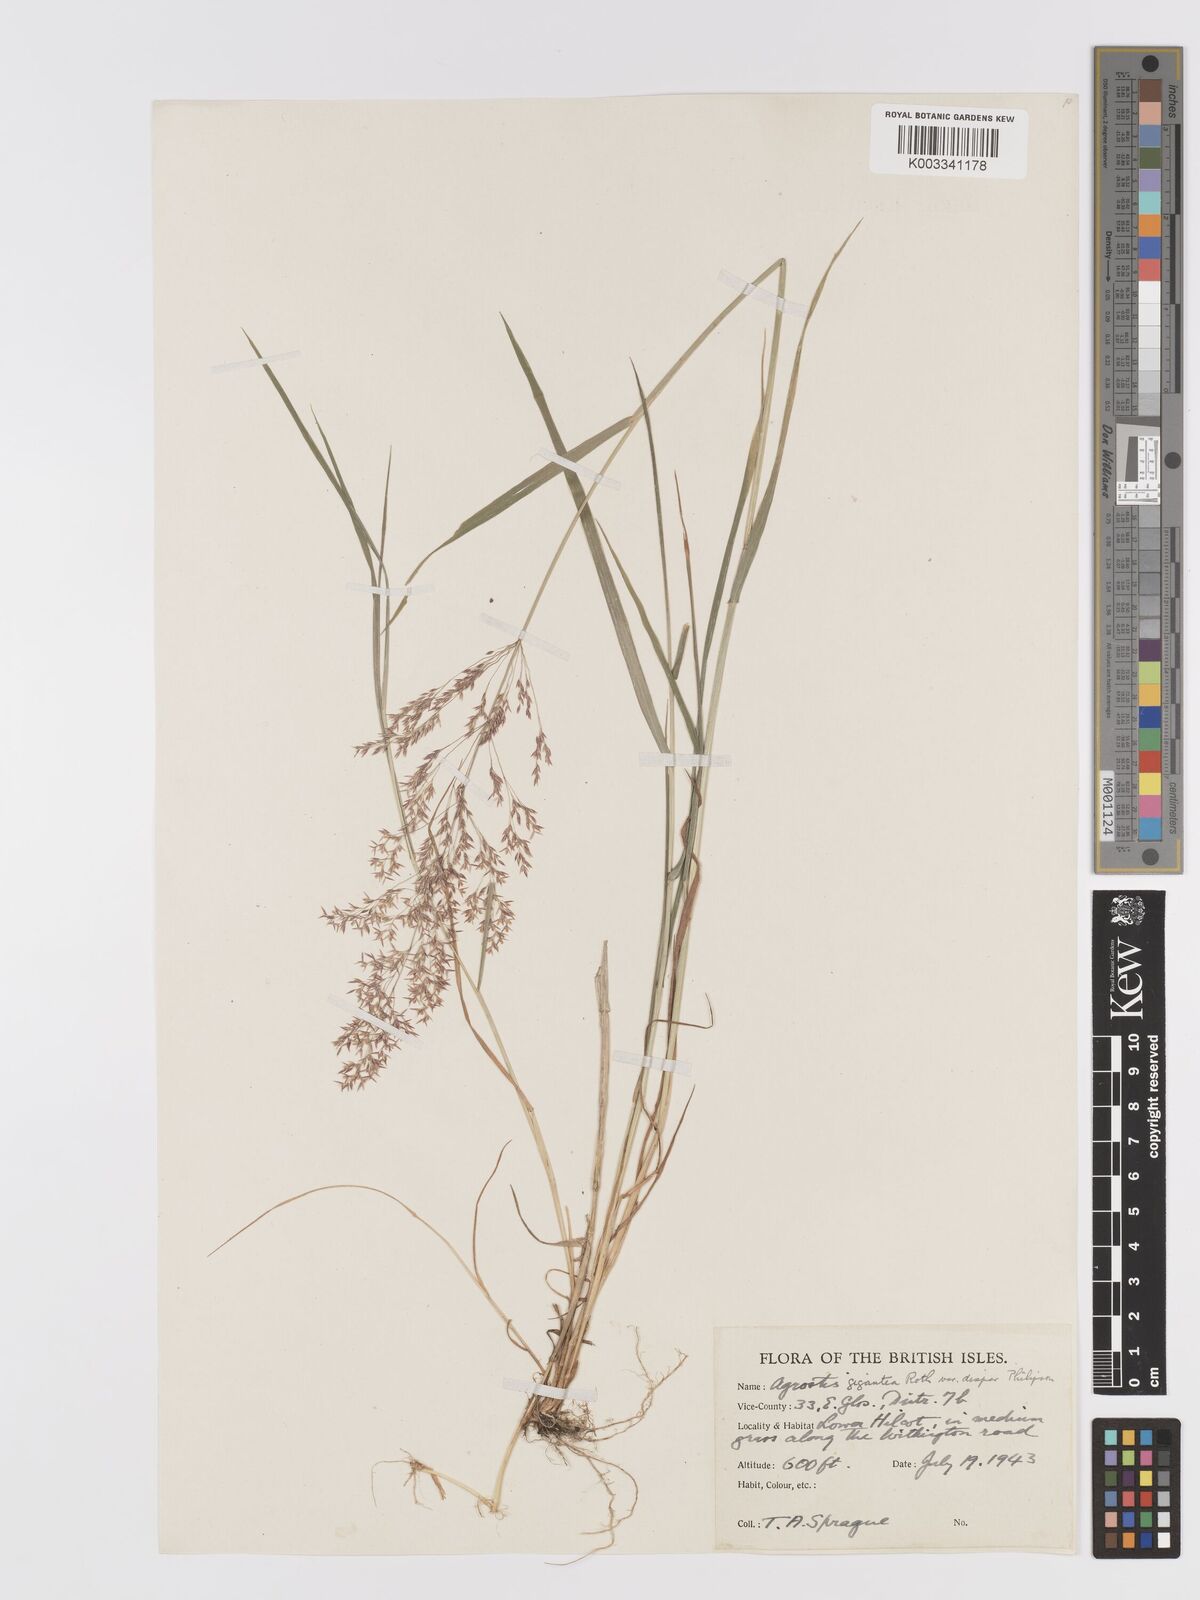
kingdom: Plantae
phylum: Tracheophyta
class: Liliopsida
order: Poales
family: Poaceae
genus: Agrostis
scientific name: Agrostis gigantea
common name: Black bent
